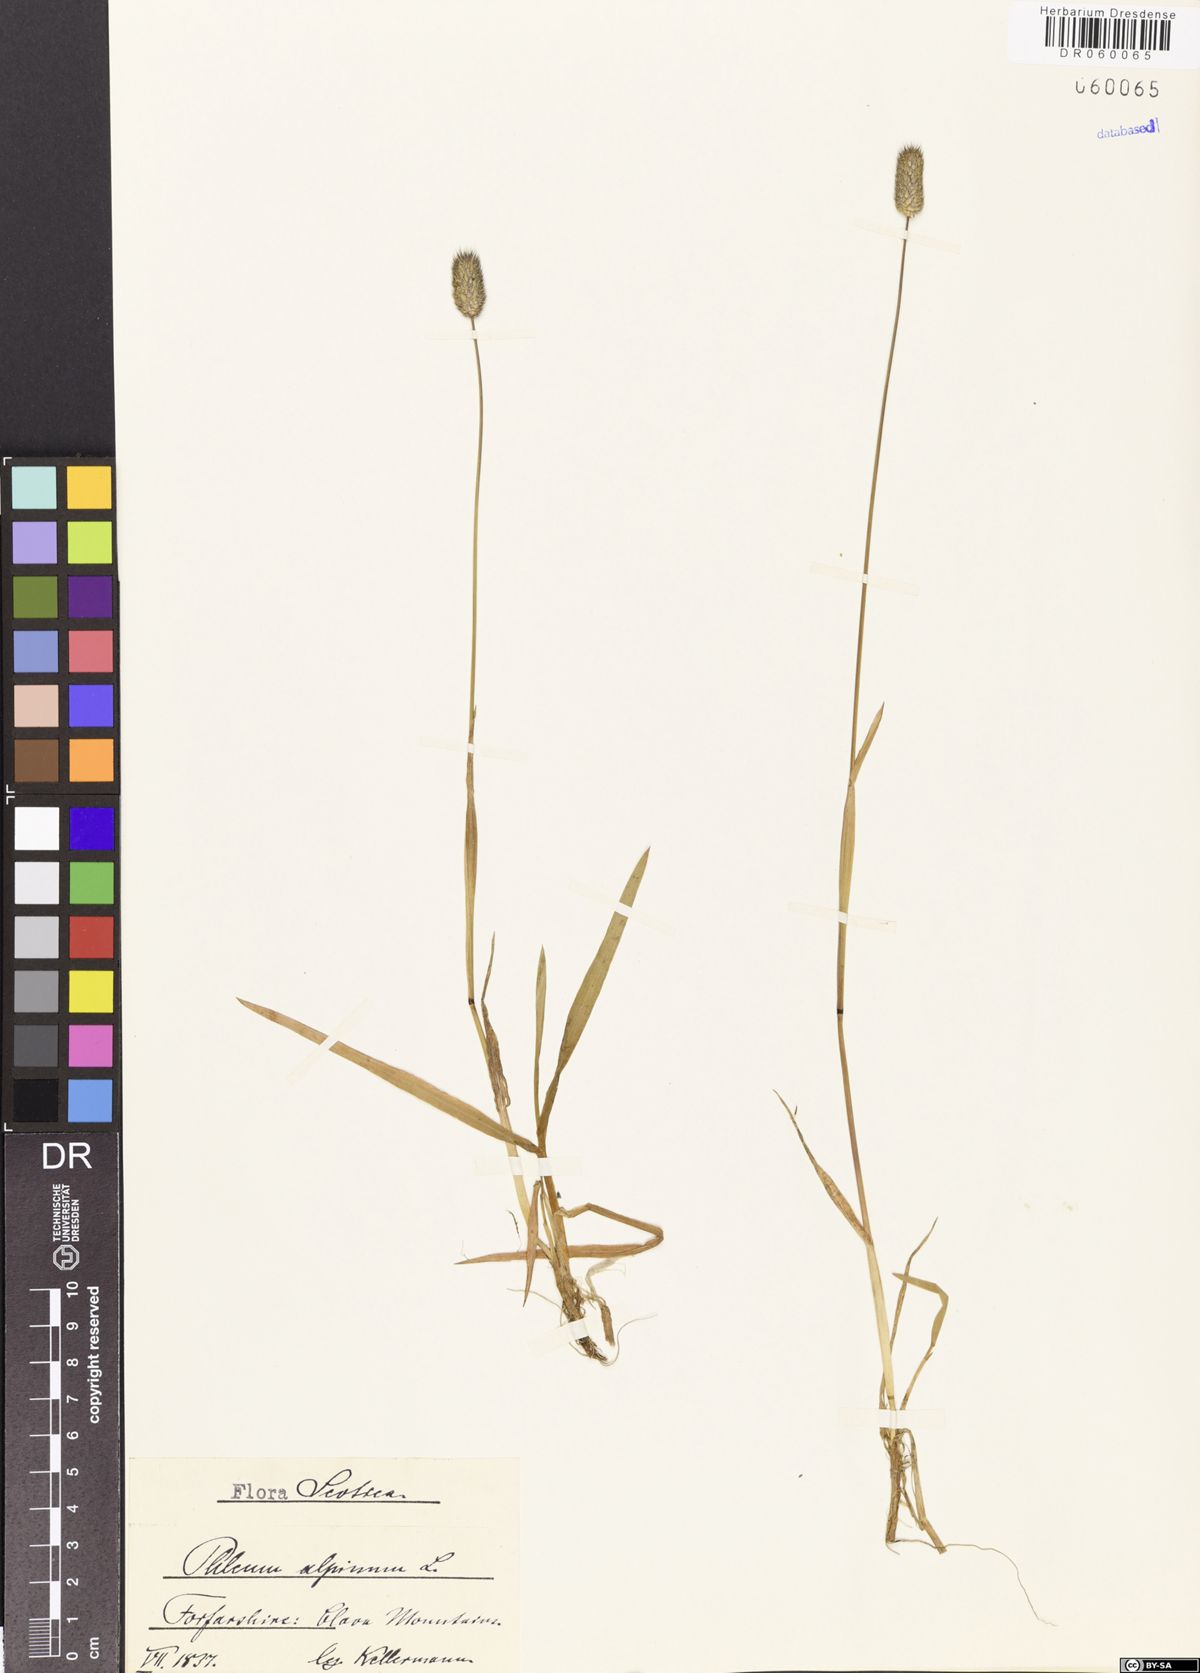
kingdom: Plantae
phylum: Tracheophyta
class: Liliopsida
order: Poales
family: Poaceae
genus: Phleum
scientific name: Phleum alpinum
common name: Alpine cat's-tail
